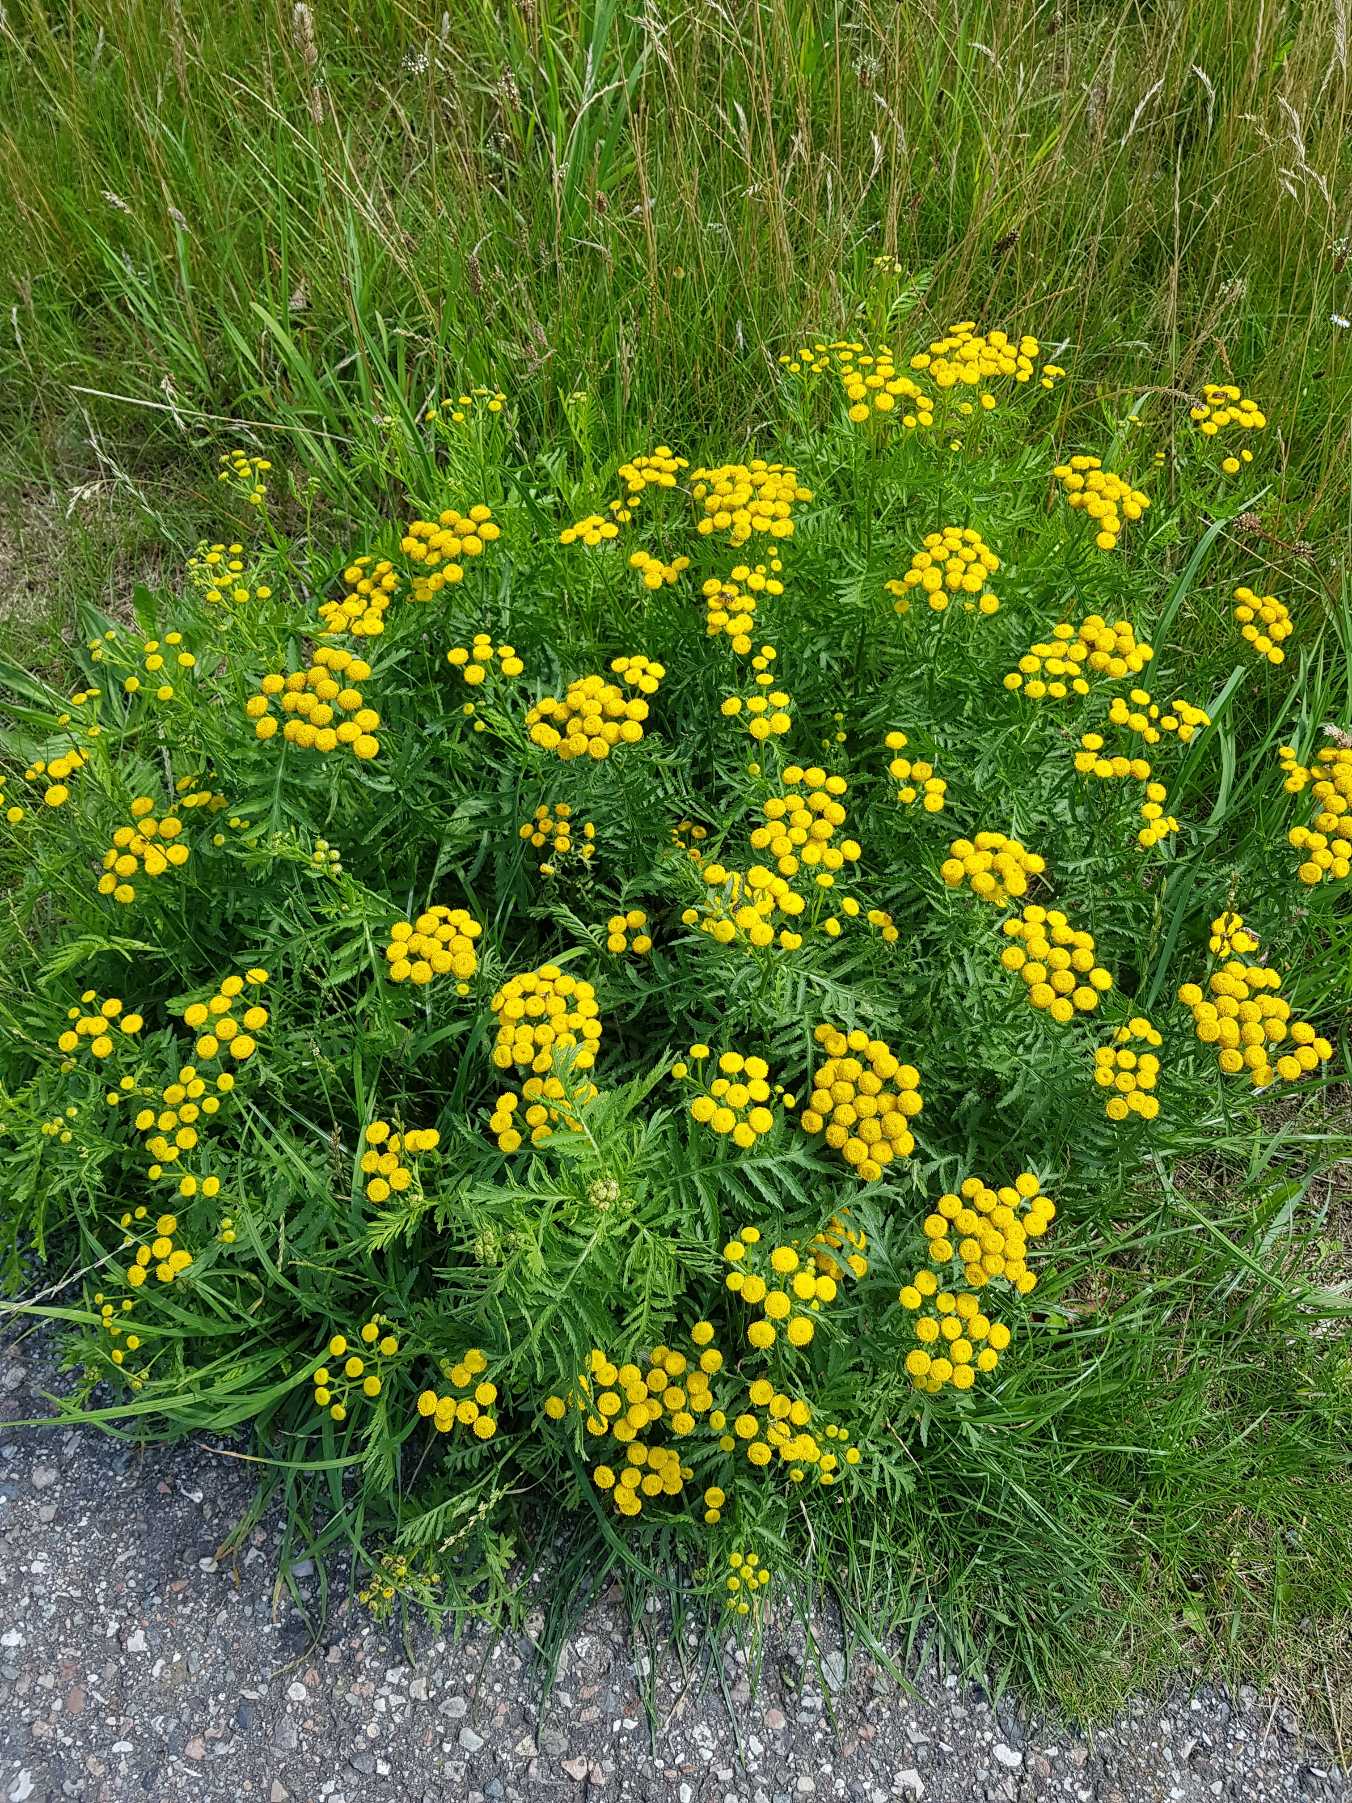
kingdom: Plantae
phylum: Tracheophyta
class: Magnoliopsida
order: Asterales
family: Asteraceae
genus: Tanacetum
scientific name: Tanacetum vulgare
